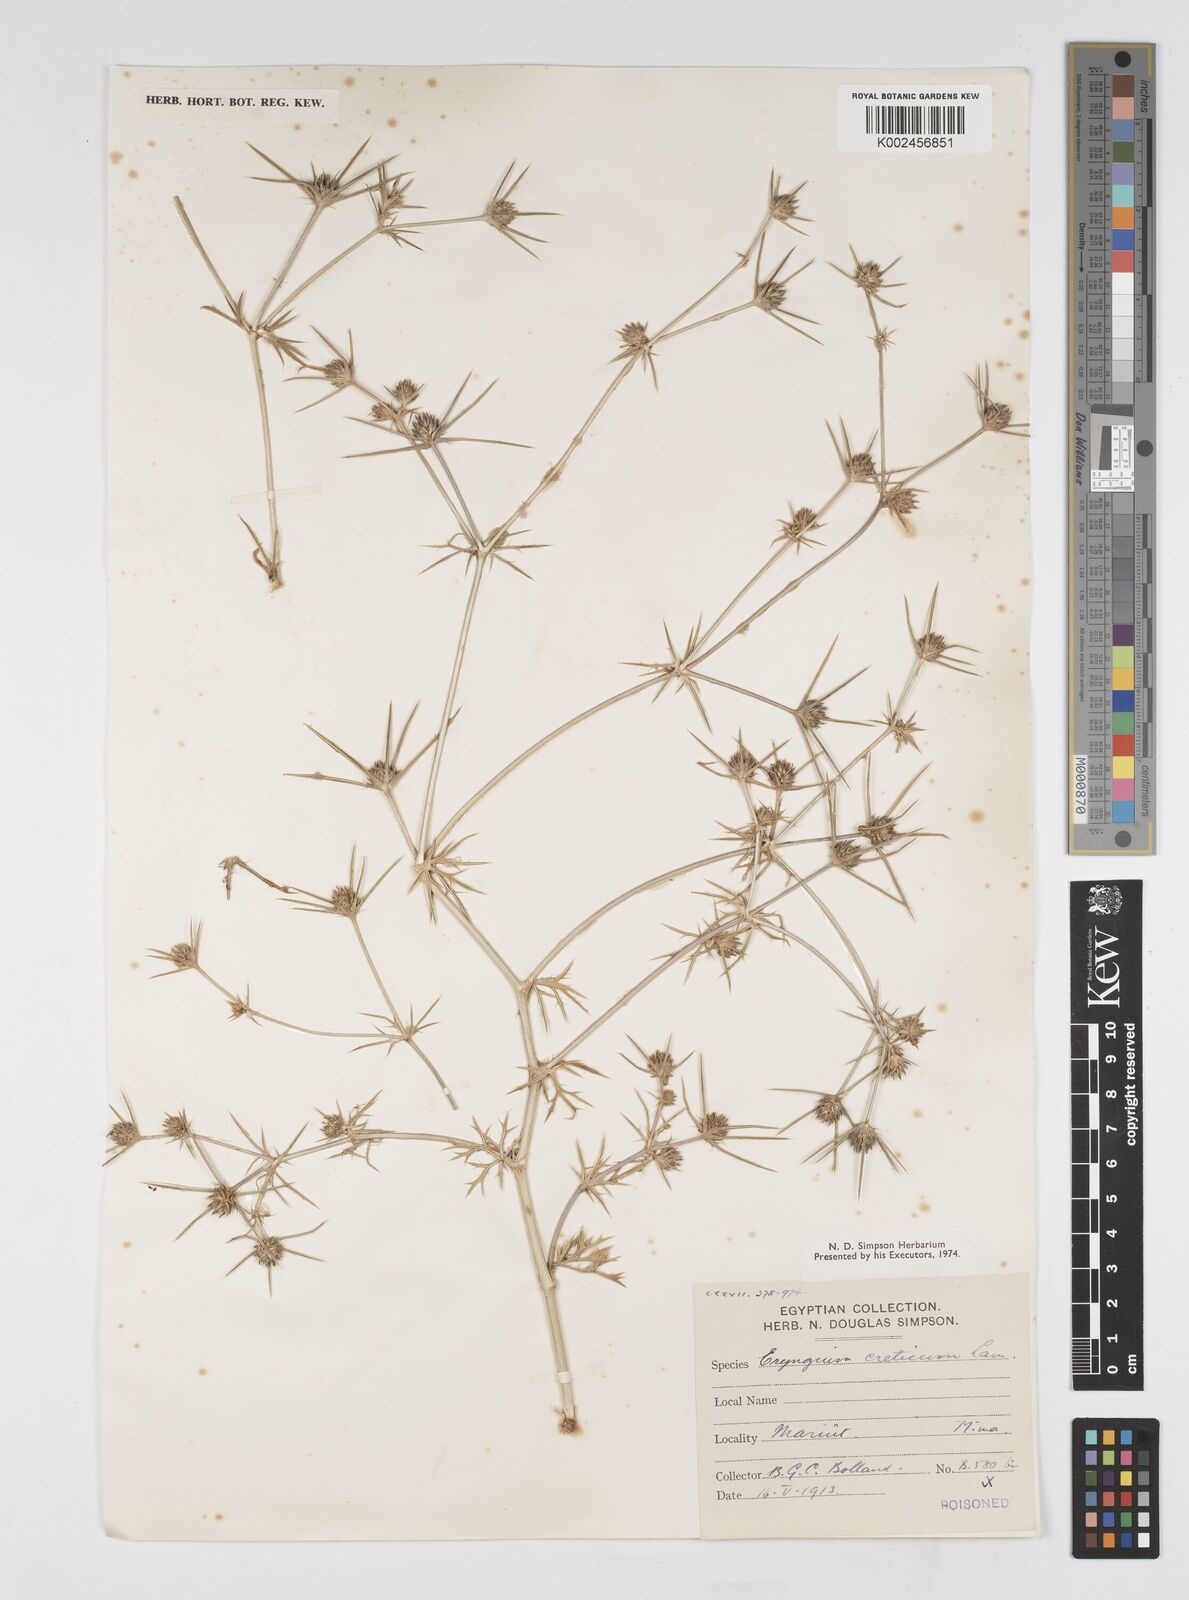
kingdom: Plantae
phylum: Tracheophyta
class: Magnoliopsida
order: Apiales
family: Apiaceae
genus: Eryngium
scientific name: Eryngium creticum
